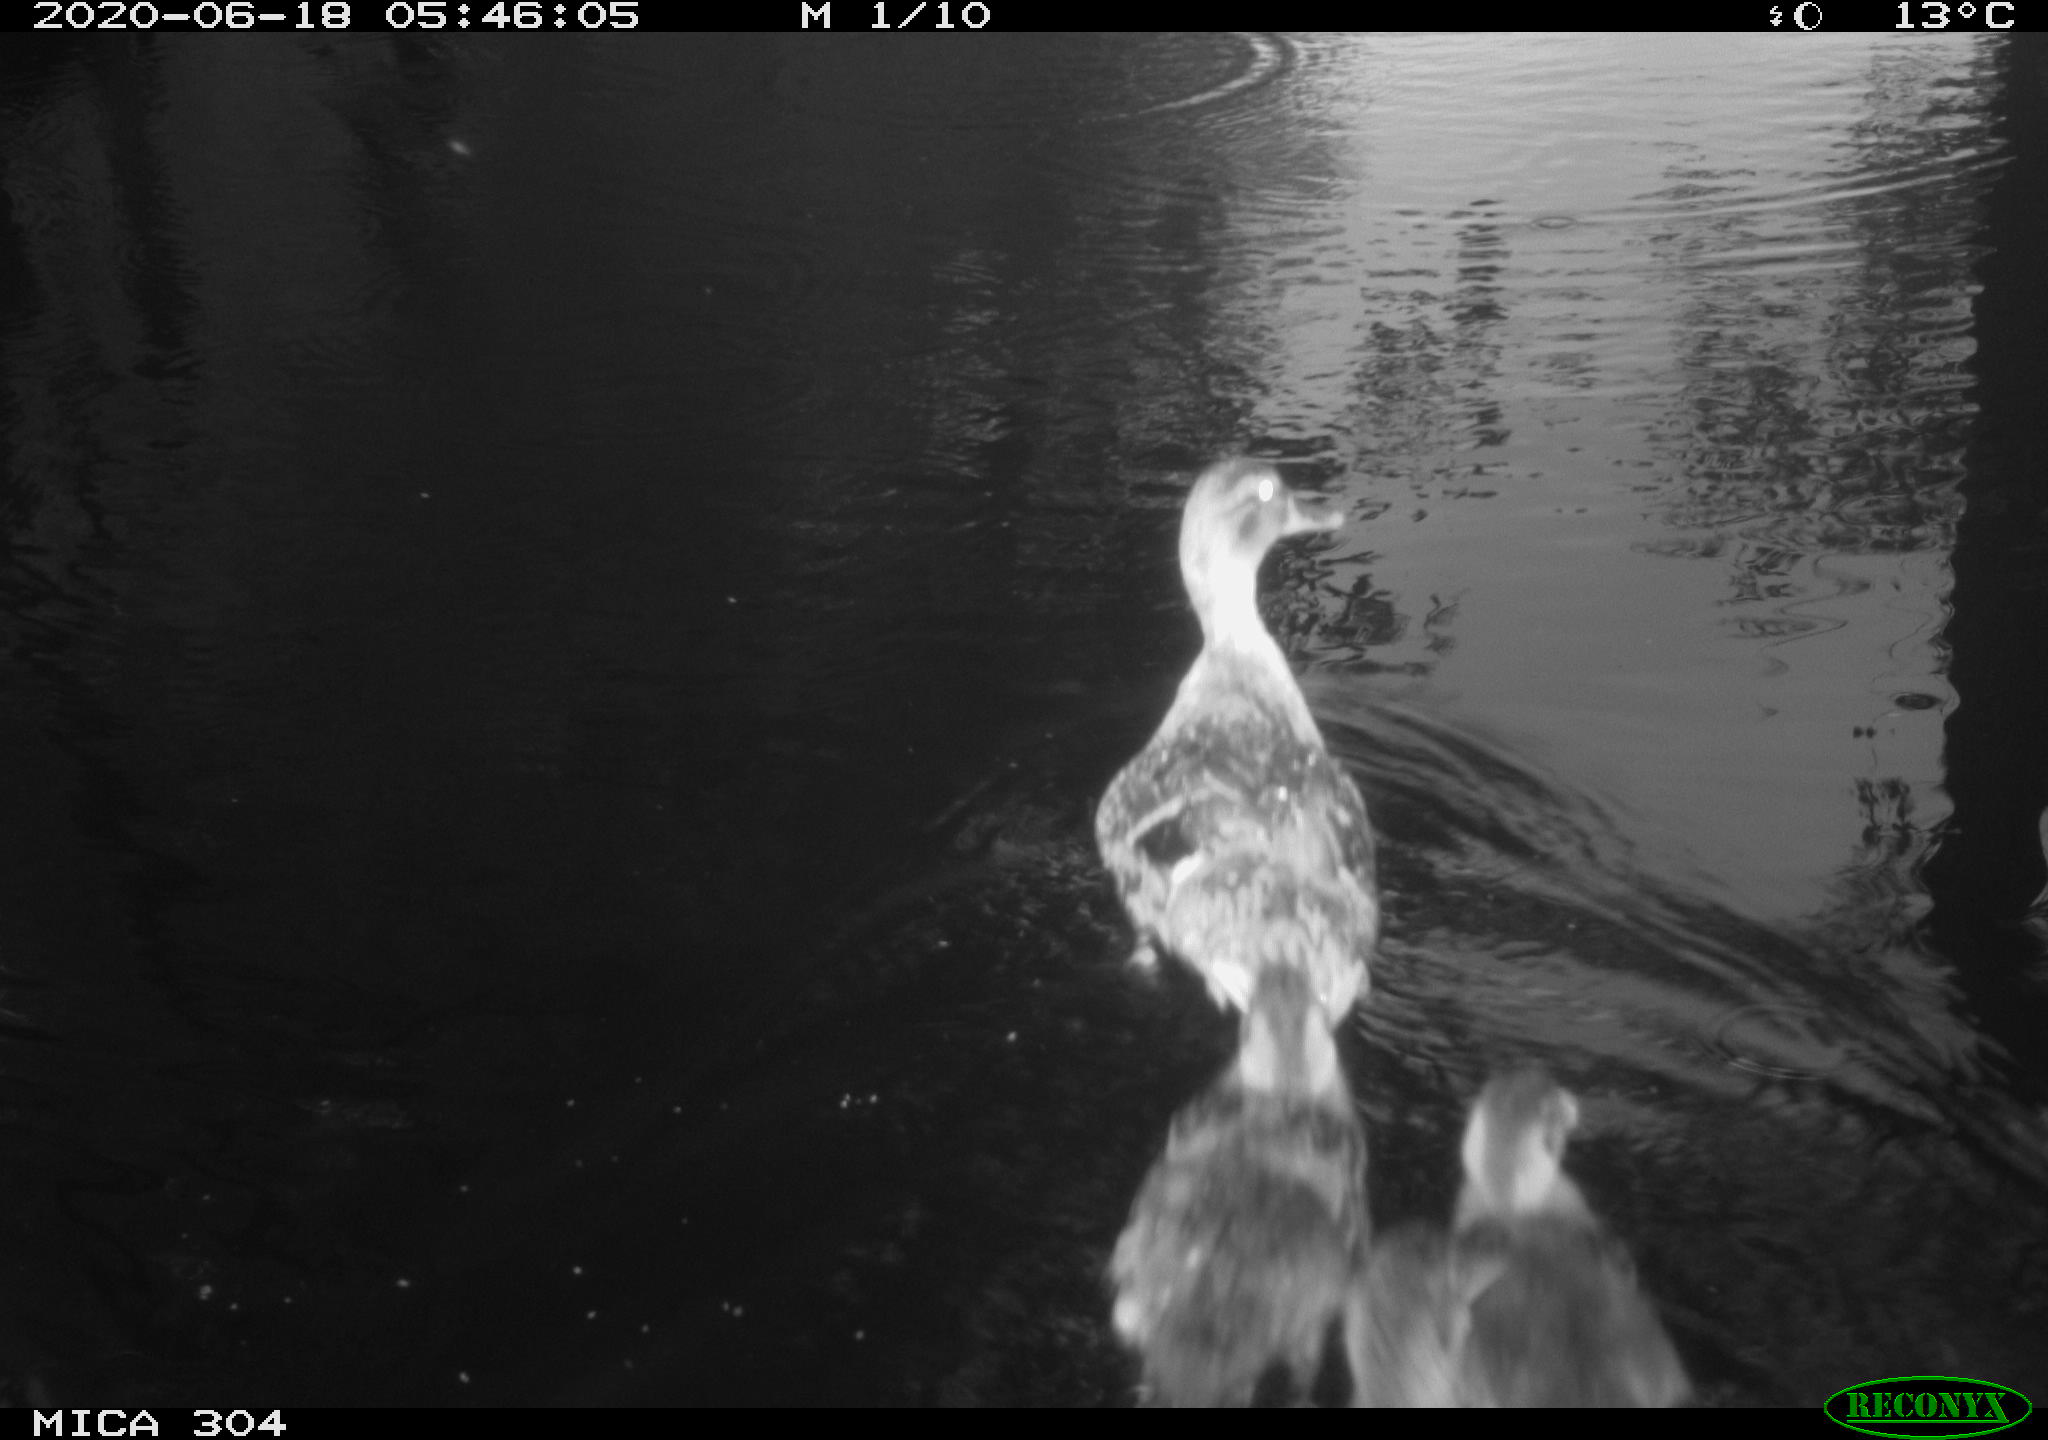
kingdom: Animalia
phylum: Chordata
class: Aves
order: Anseriformes
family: Anatidae
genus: Anas
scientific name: Anas platyrhynchos
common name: Mallard
